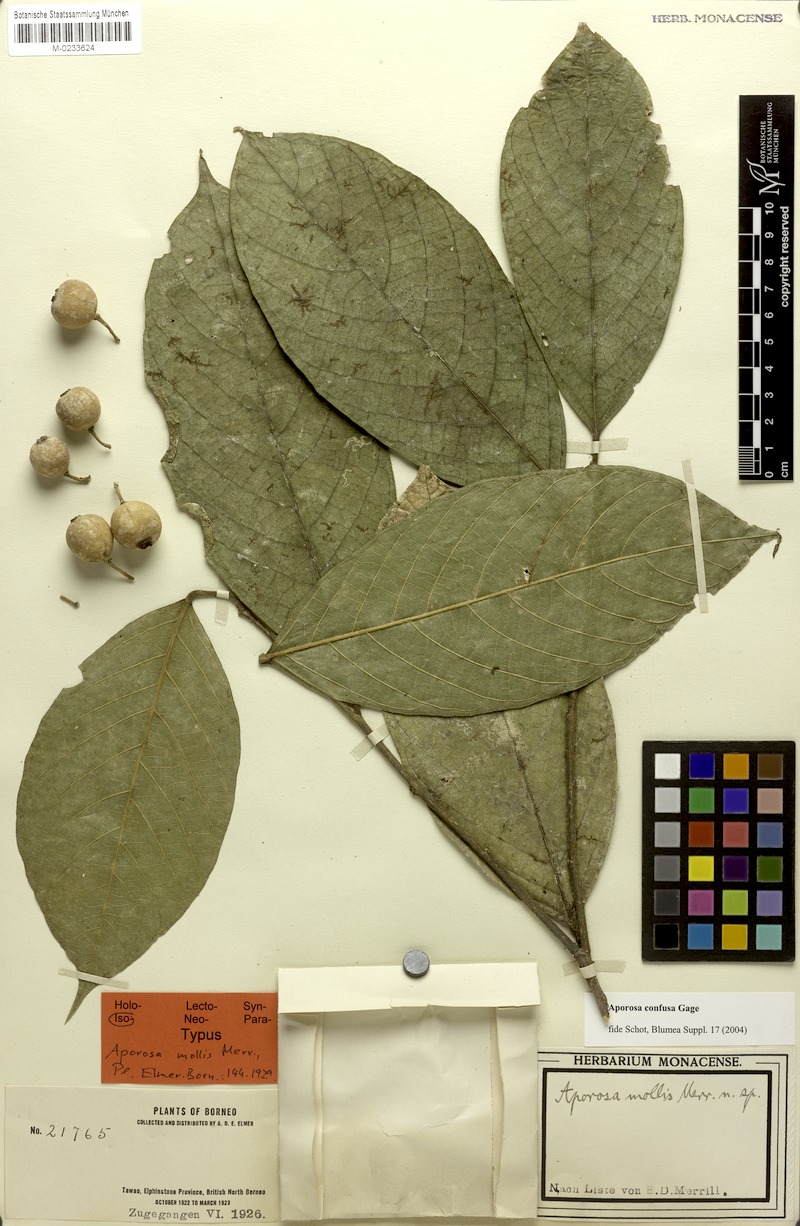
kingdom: Plantae
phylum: Tracheophyta
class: Magnoliopsida
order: Malpighiales
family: Phyllanthaceae
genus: Aporosa
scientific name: Aporosa confusa
